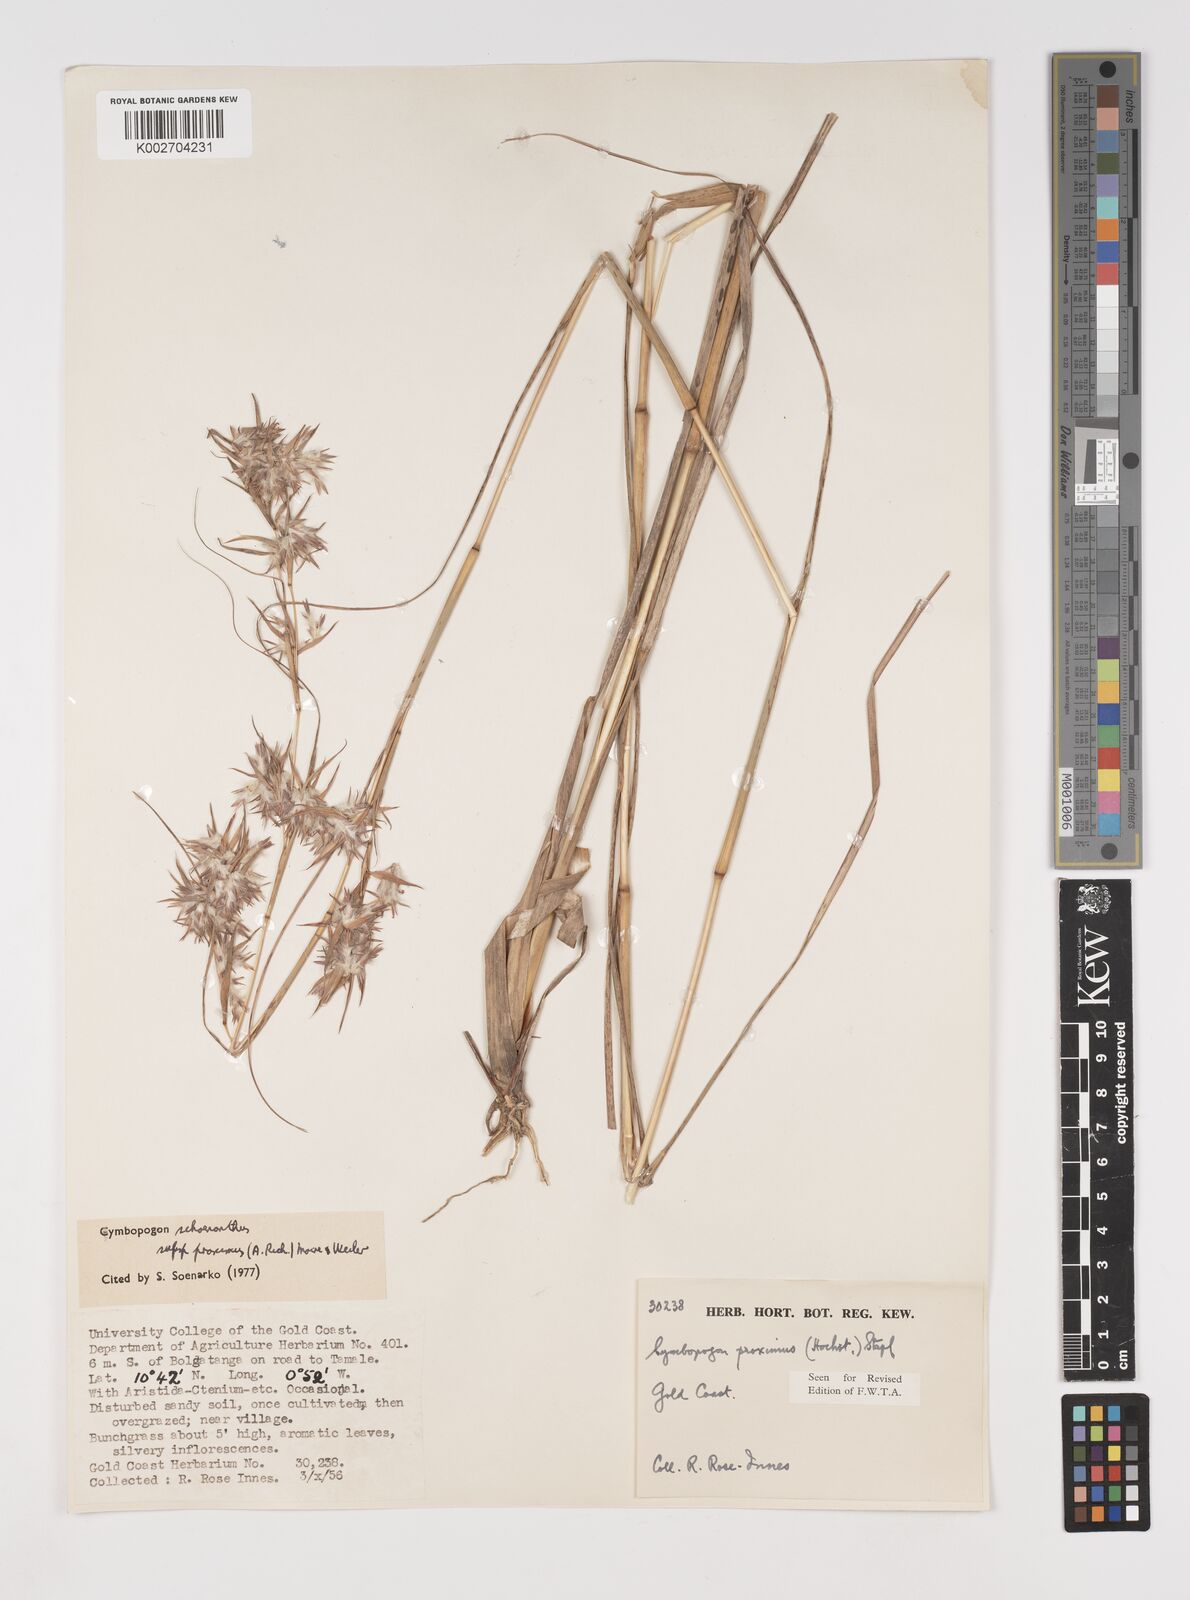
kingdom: Plantae
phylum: Tracheophyta
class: Liliopsida
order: Poales
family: Poaceae
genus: Cymbopogon
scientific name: Cymbopogon schoenanthus
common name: Geranium grass
